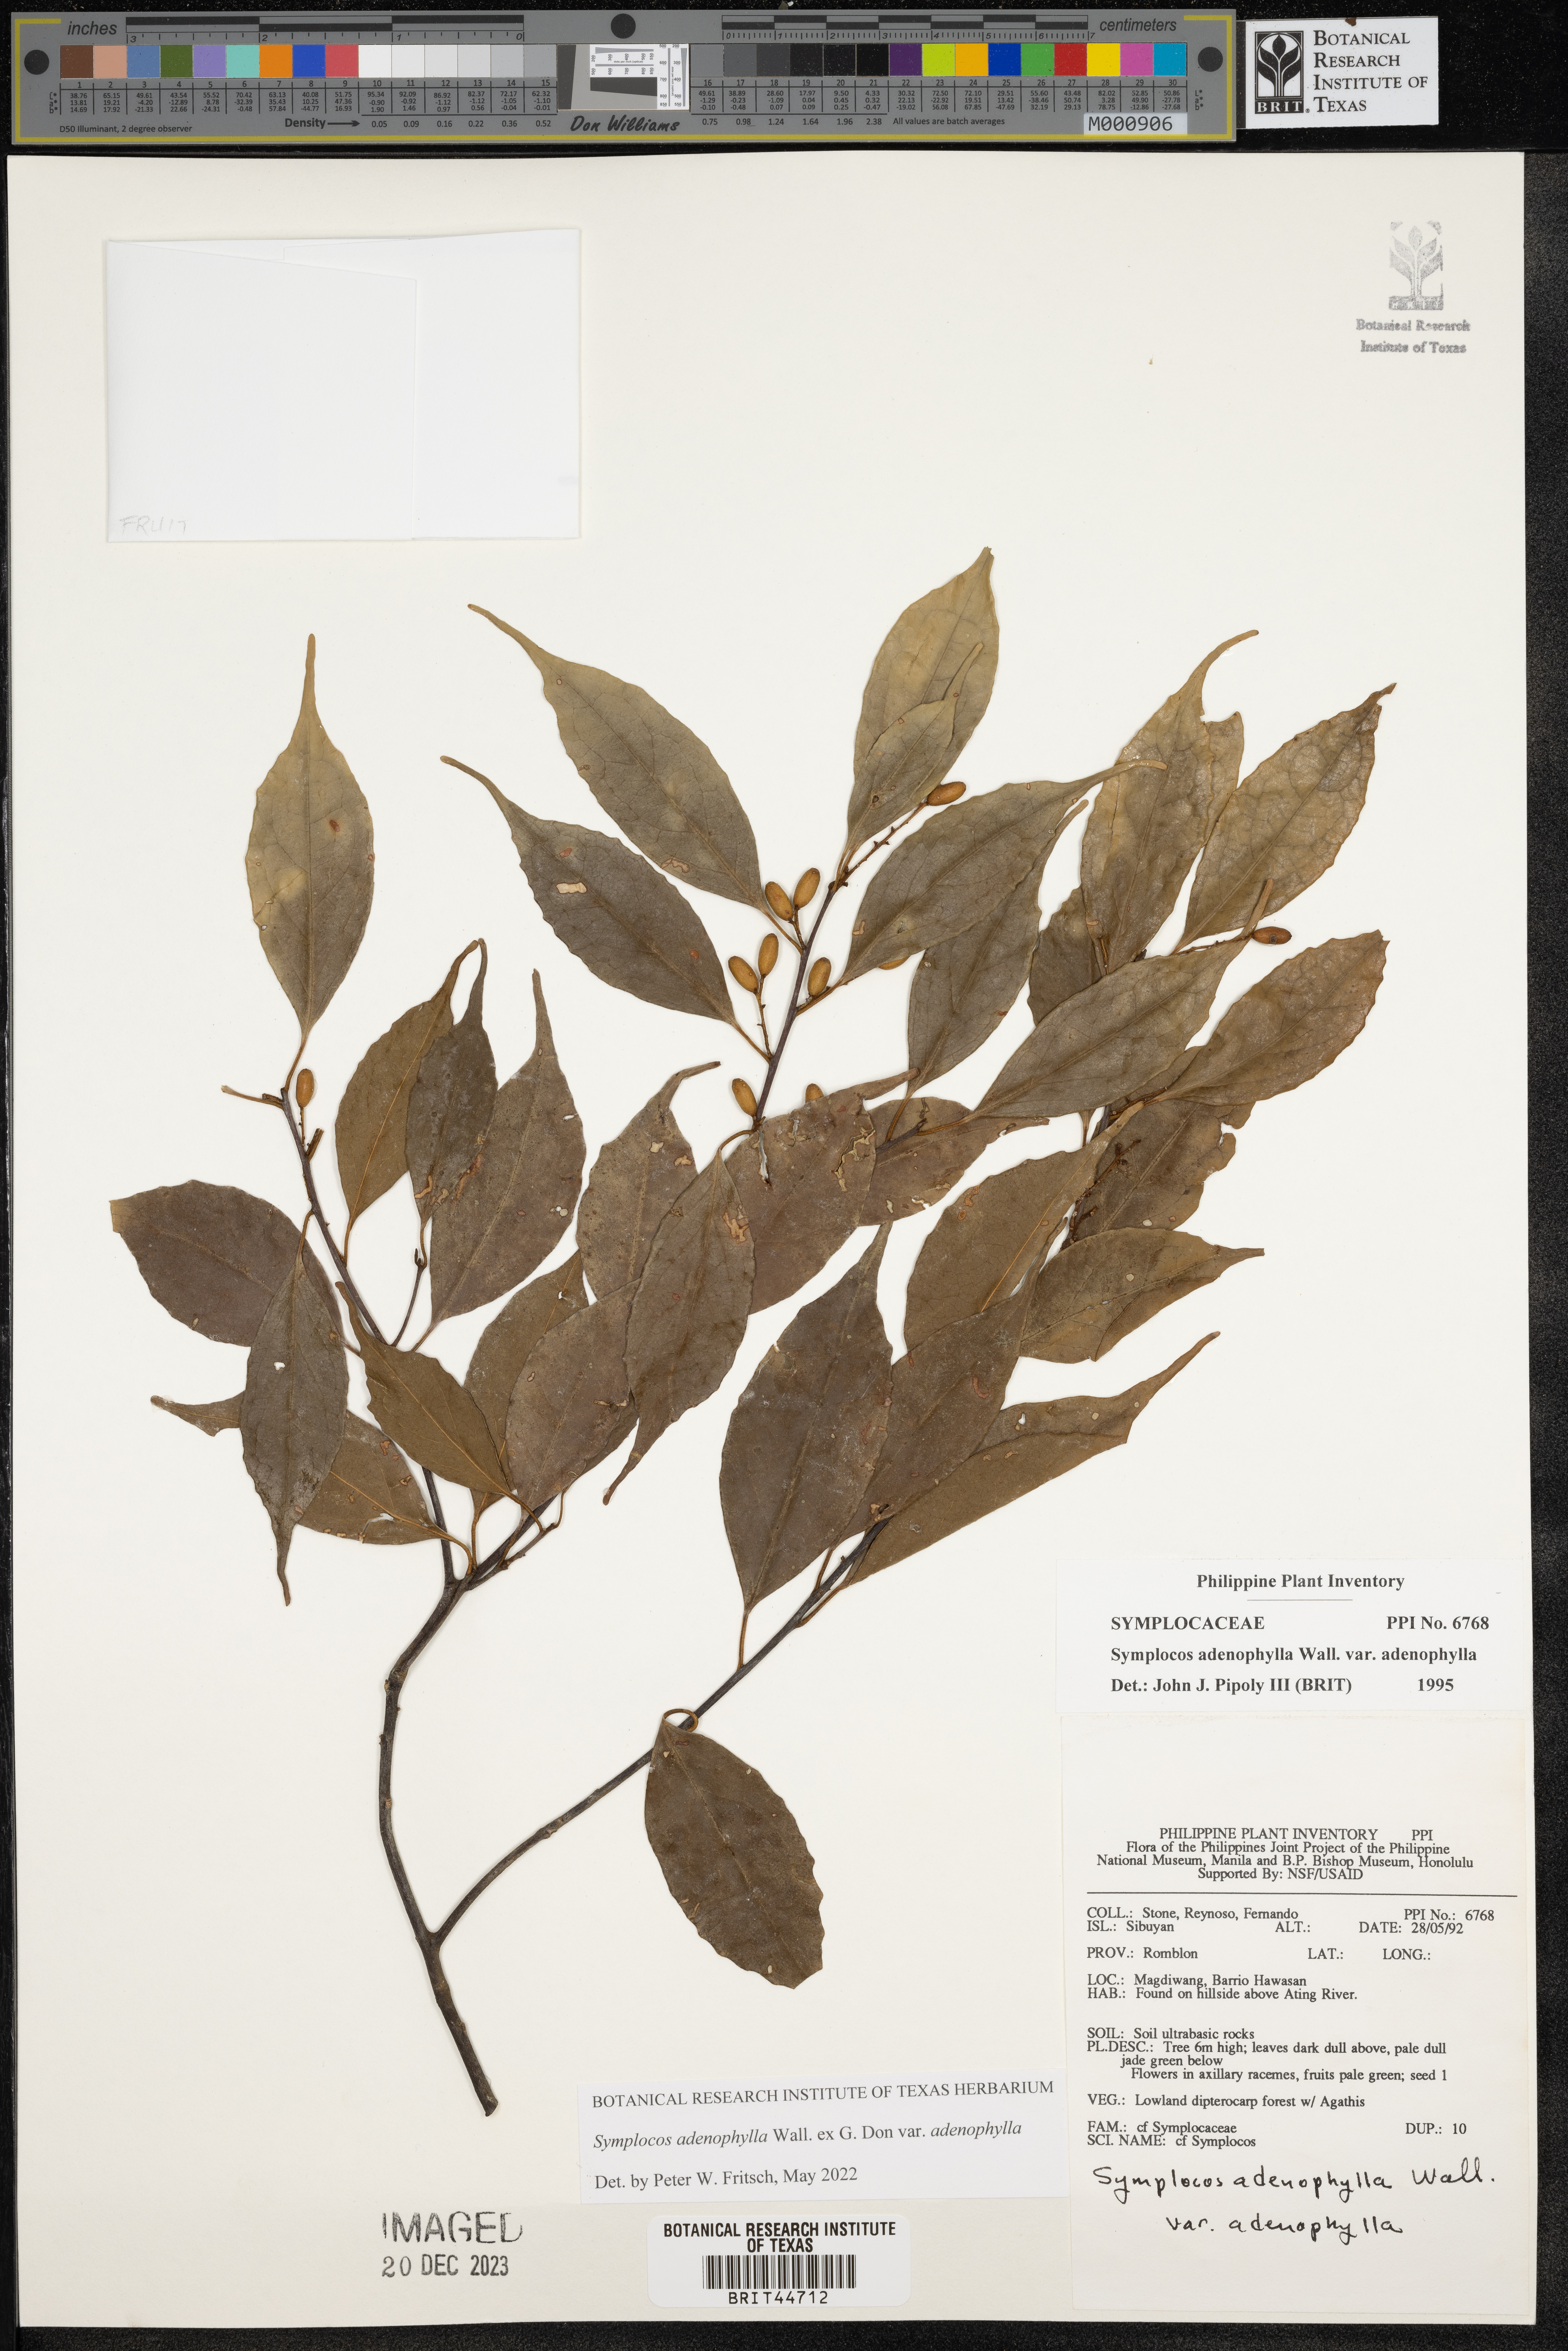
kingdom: Plantae
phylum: Tracheophyta
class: Magnoliopsida
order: Ericales
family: Symplocaceae
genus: Symplocos
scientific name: Symplocos adenophylla
